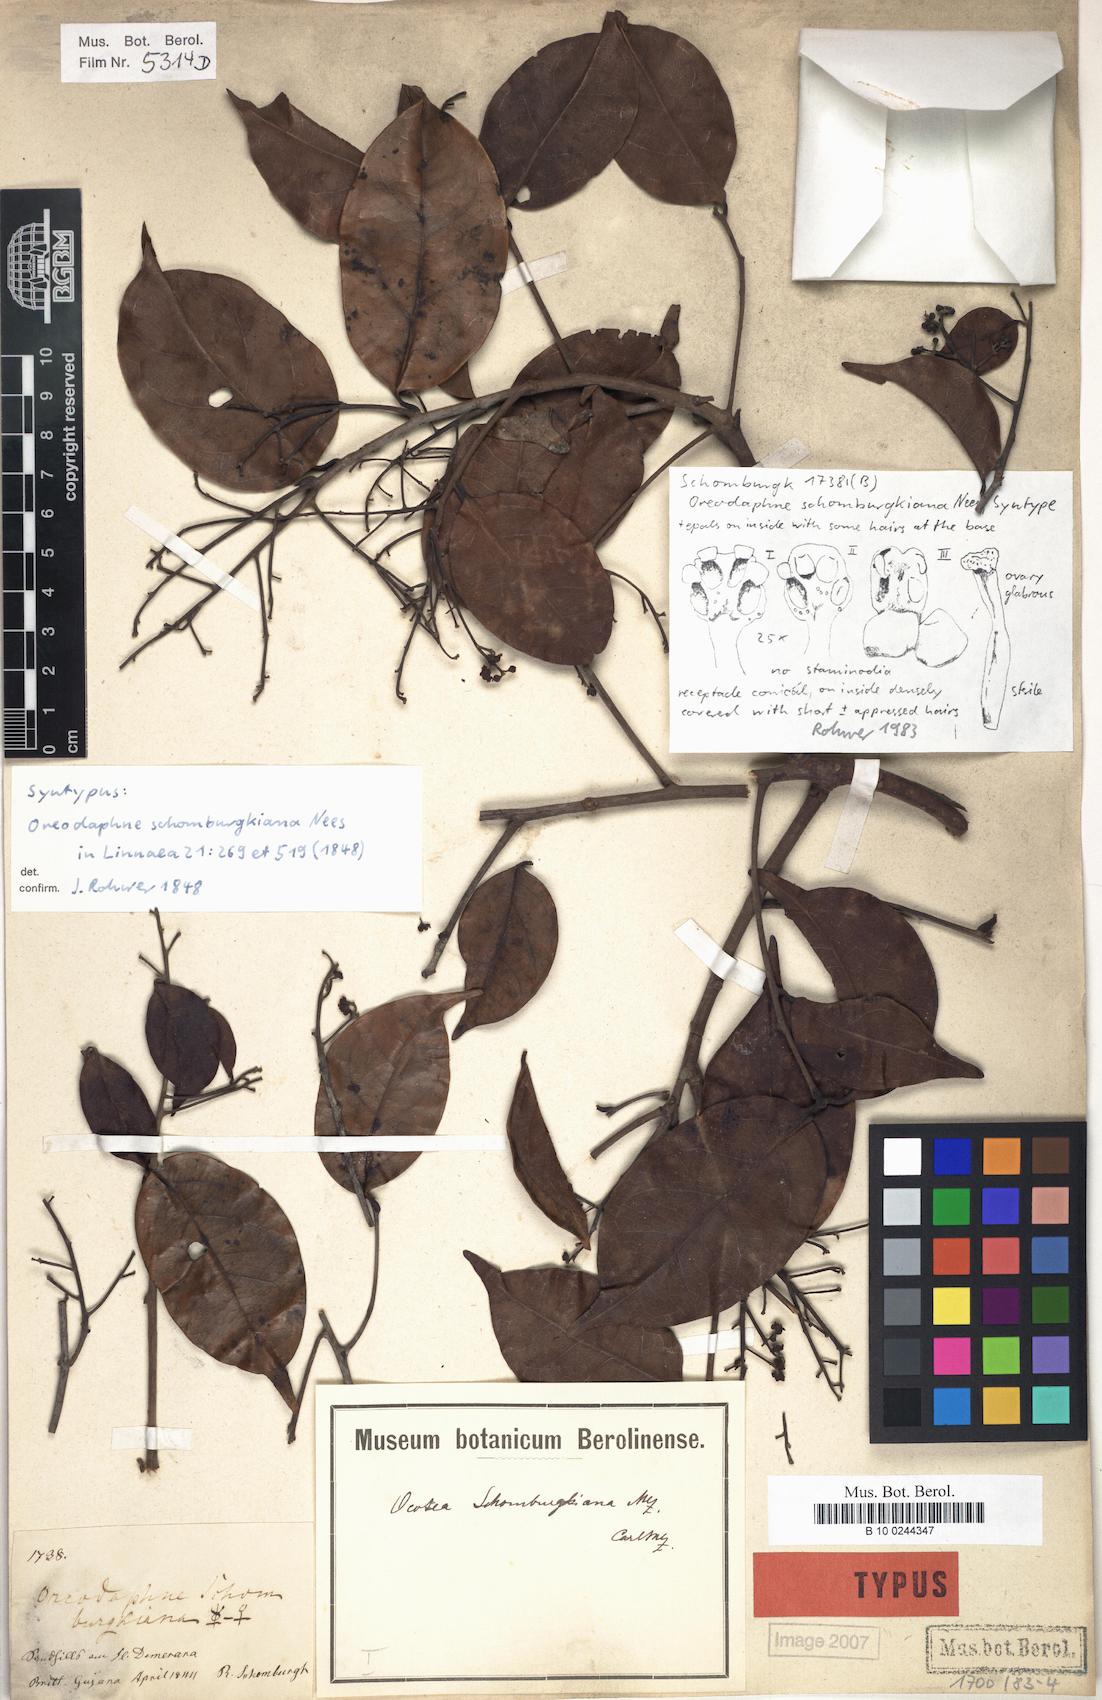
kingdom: Plantae
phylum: Tracheophyta
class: Magnoliopsida
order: Laurales
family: Lauraceae
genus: Ocotea
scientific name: Ocotea schomburgkiana
